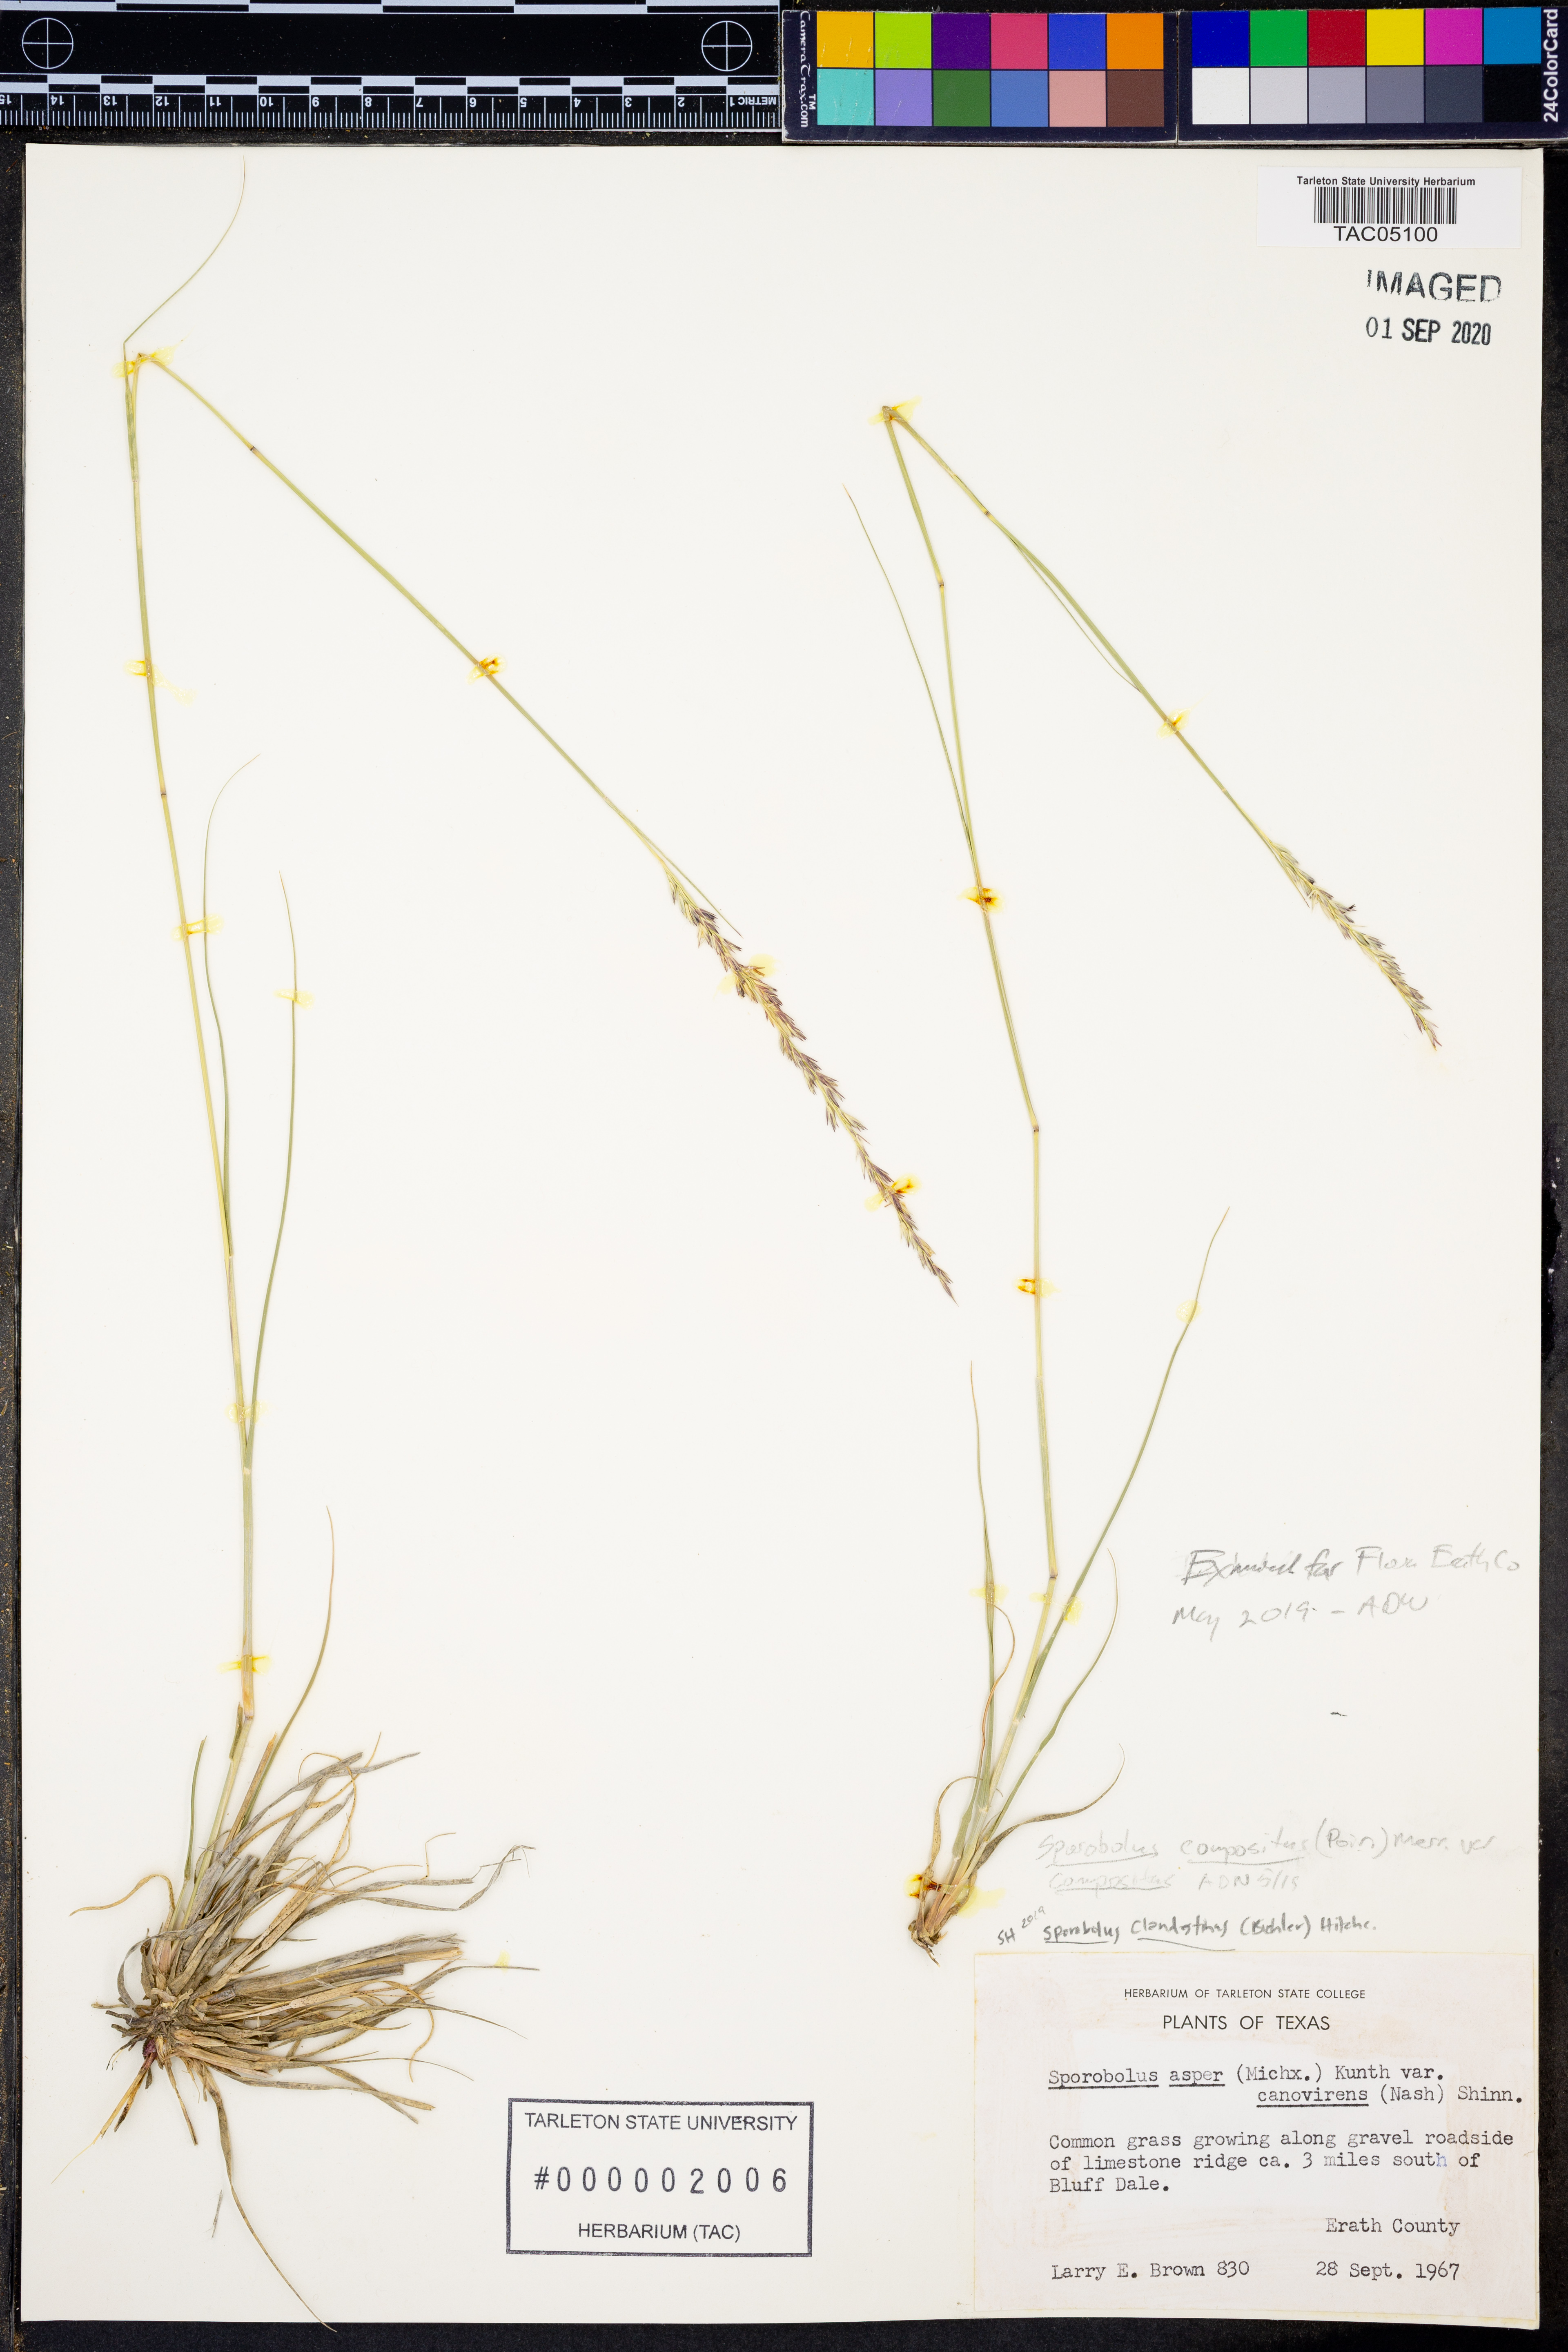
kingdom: Plantae
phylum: Tracheophyta
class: Liliopsida
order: Poales
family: Poaceae
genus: Sporobolus
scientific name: Sporobolus compositus
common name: Rough dropseed
